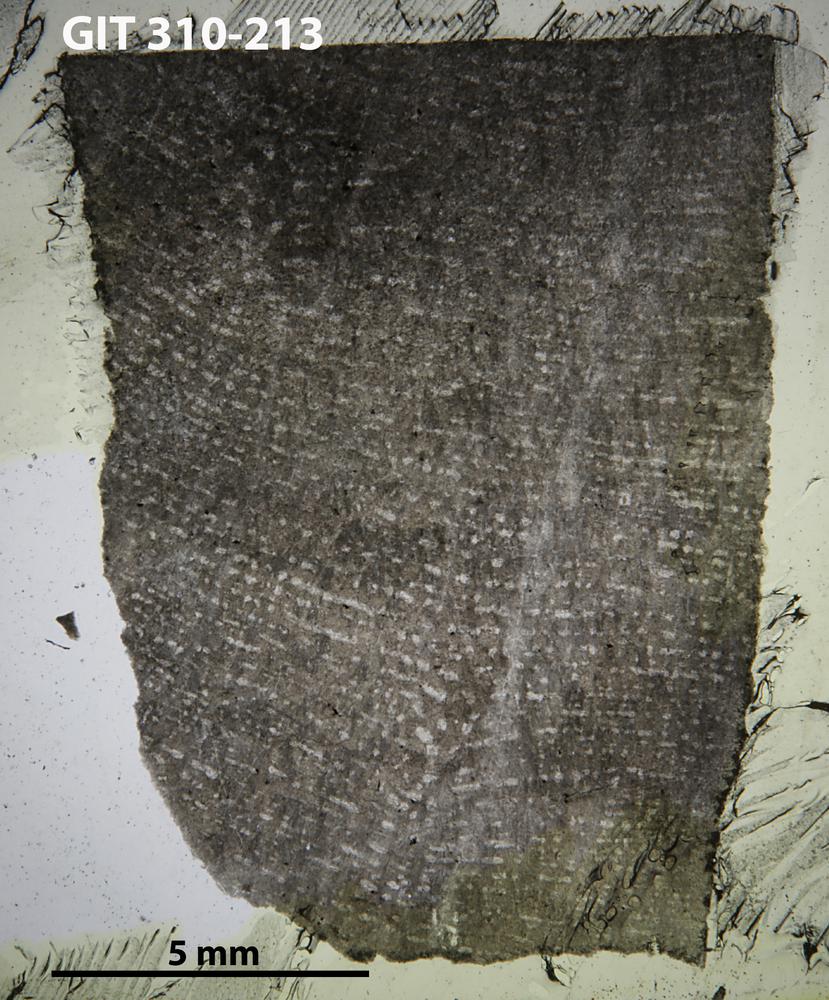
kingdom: Animalia
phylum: Porifera
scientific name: Porifera
